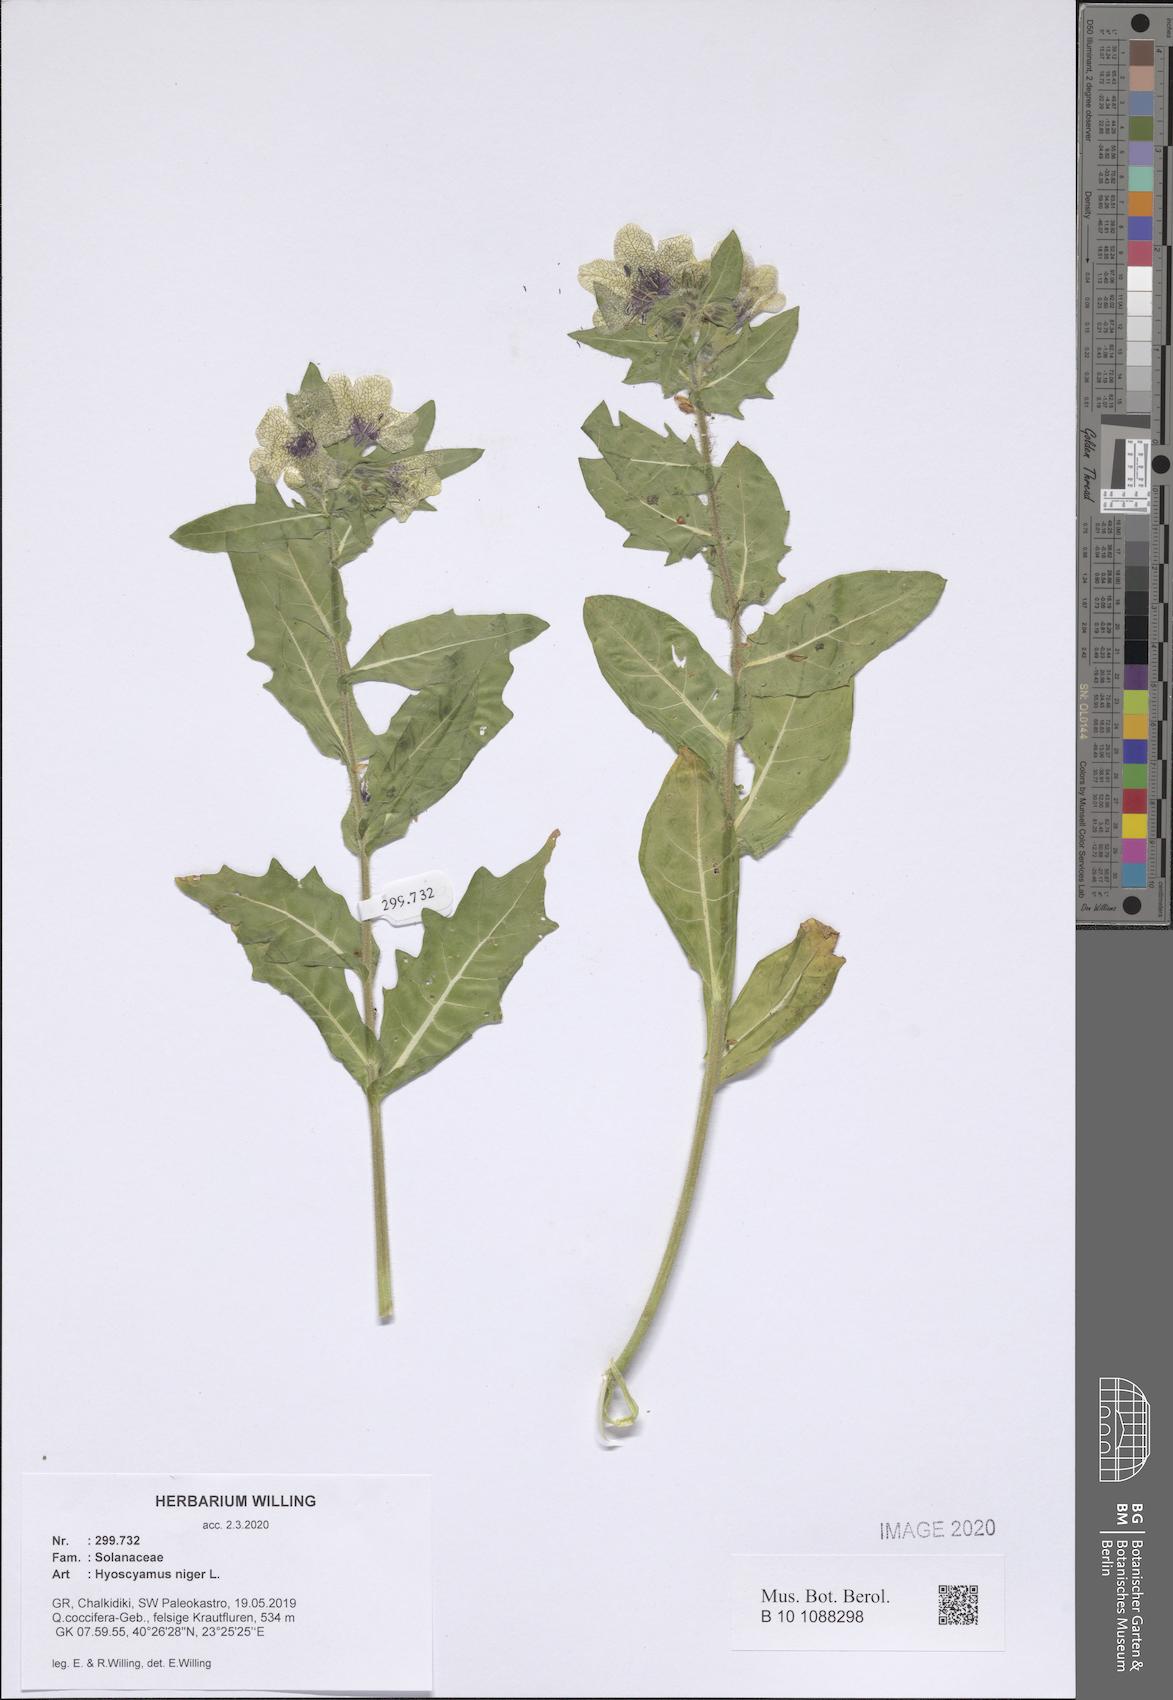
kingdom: Plantae
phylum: Tracheophyta
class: Magnoliopsida
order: Solanales
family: Solanaceae
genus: Hyoscyamus
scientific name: Hyoscyamus niger
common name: Henbane
